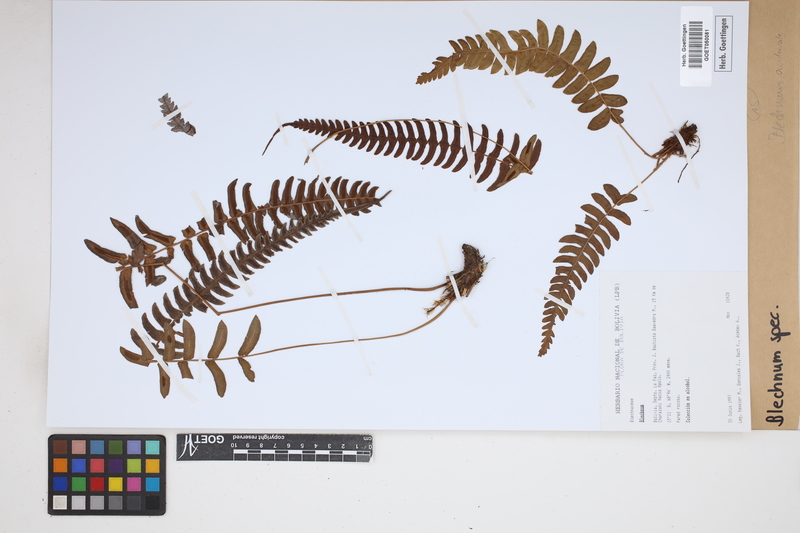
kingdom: Plantae
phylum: Tracheophyta
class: Polypodiopsida
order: Polypodiales
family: Blechnaceae
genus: Blechnum
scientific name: Blechnum
